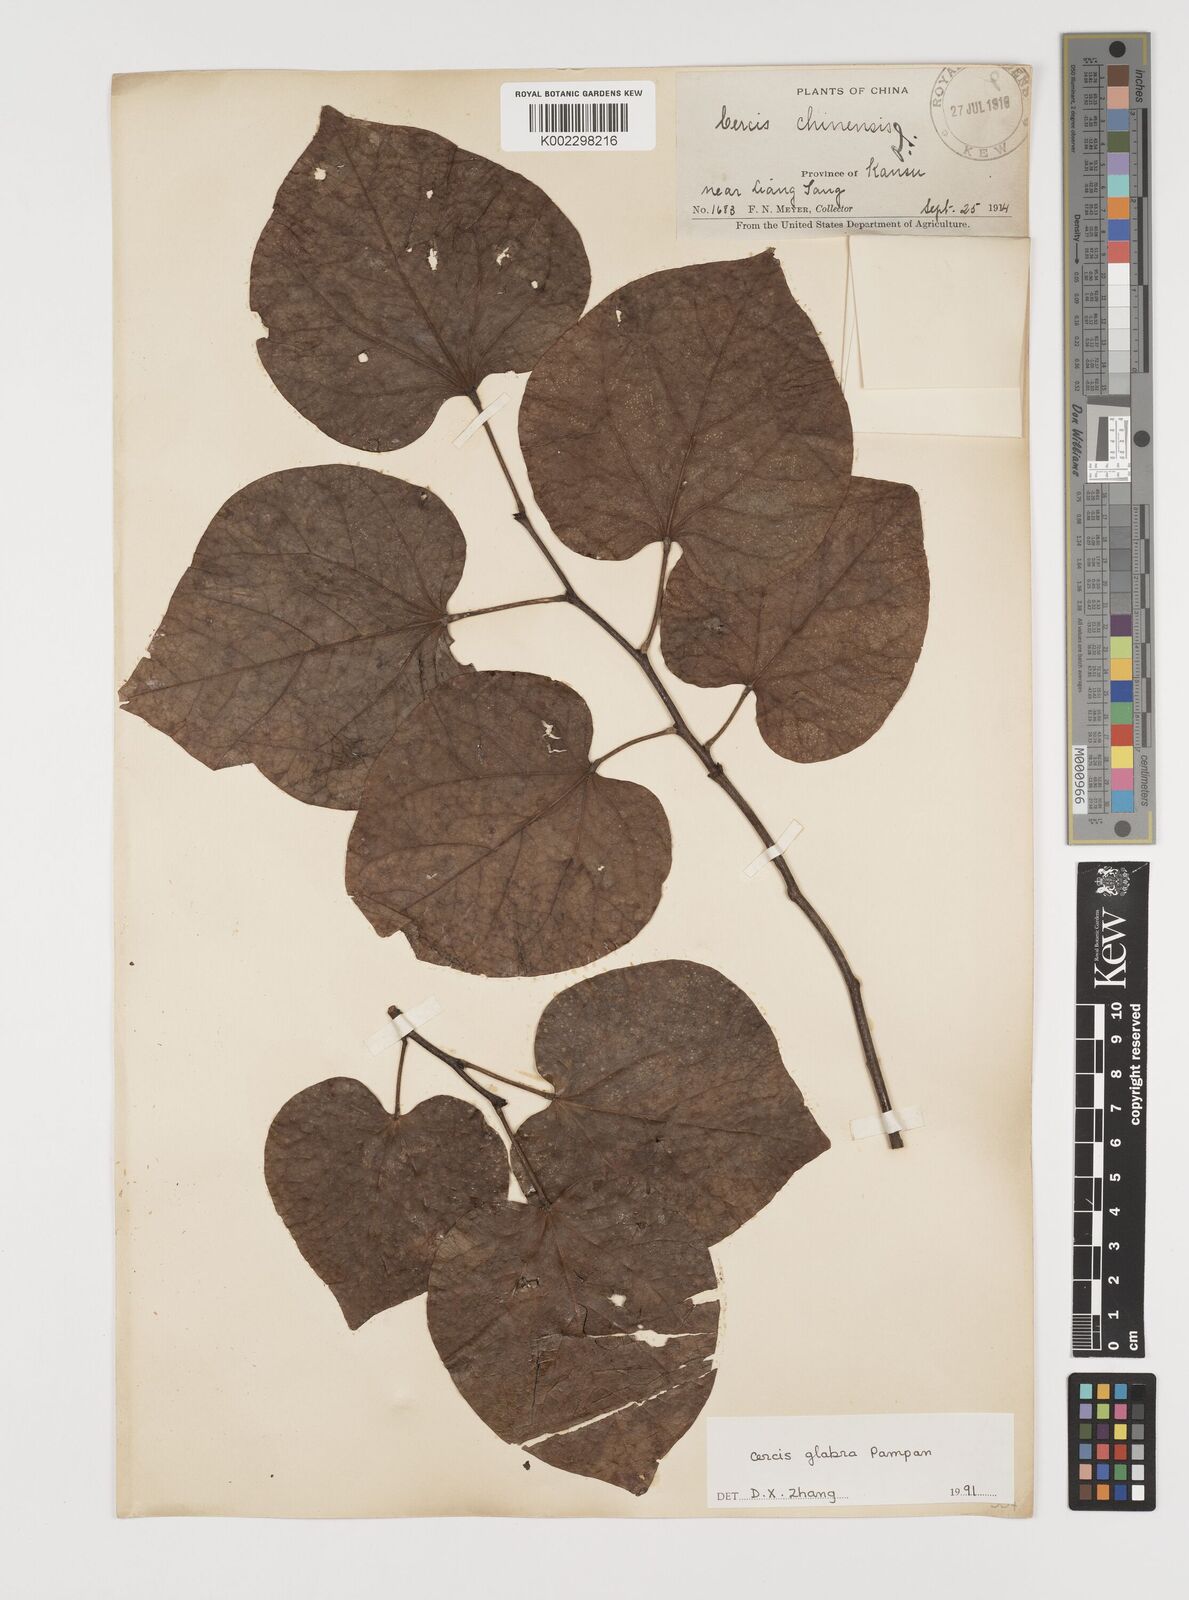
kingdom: Plantae
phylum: Tracheophyta
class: Magnoliopsida
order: Fabales
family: Fabaceae
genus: Cercis
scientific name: Cercis glabra
